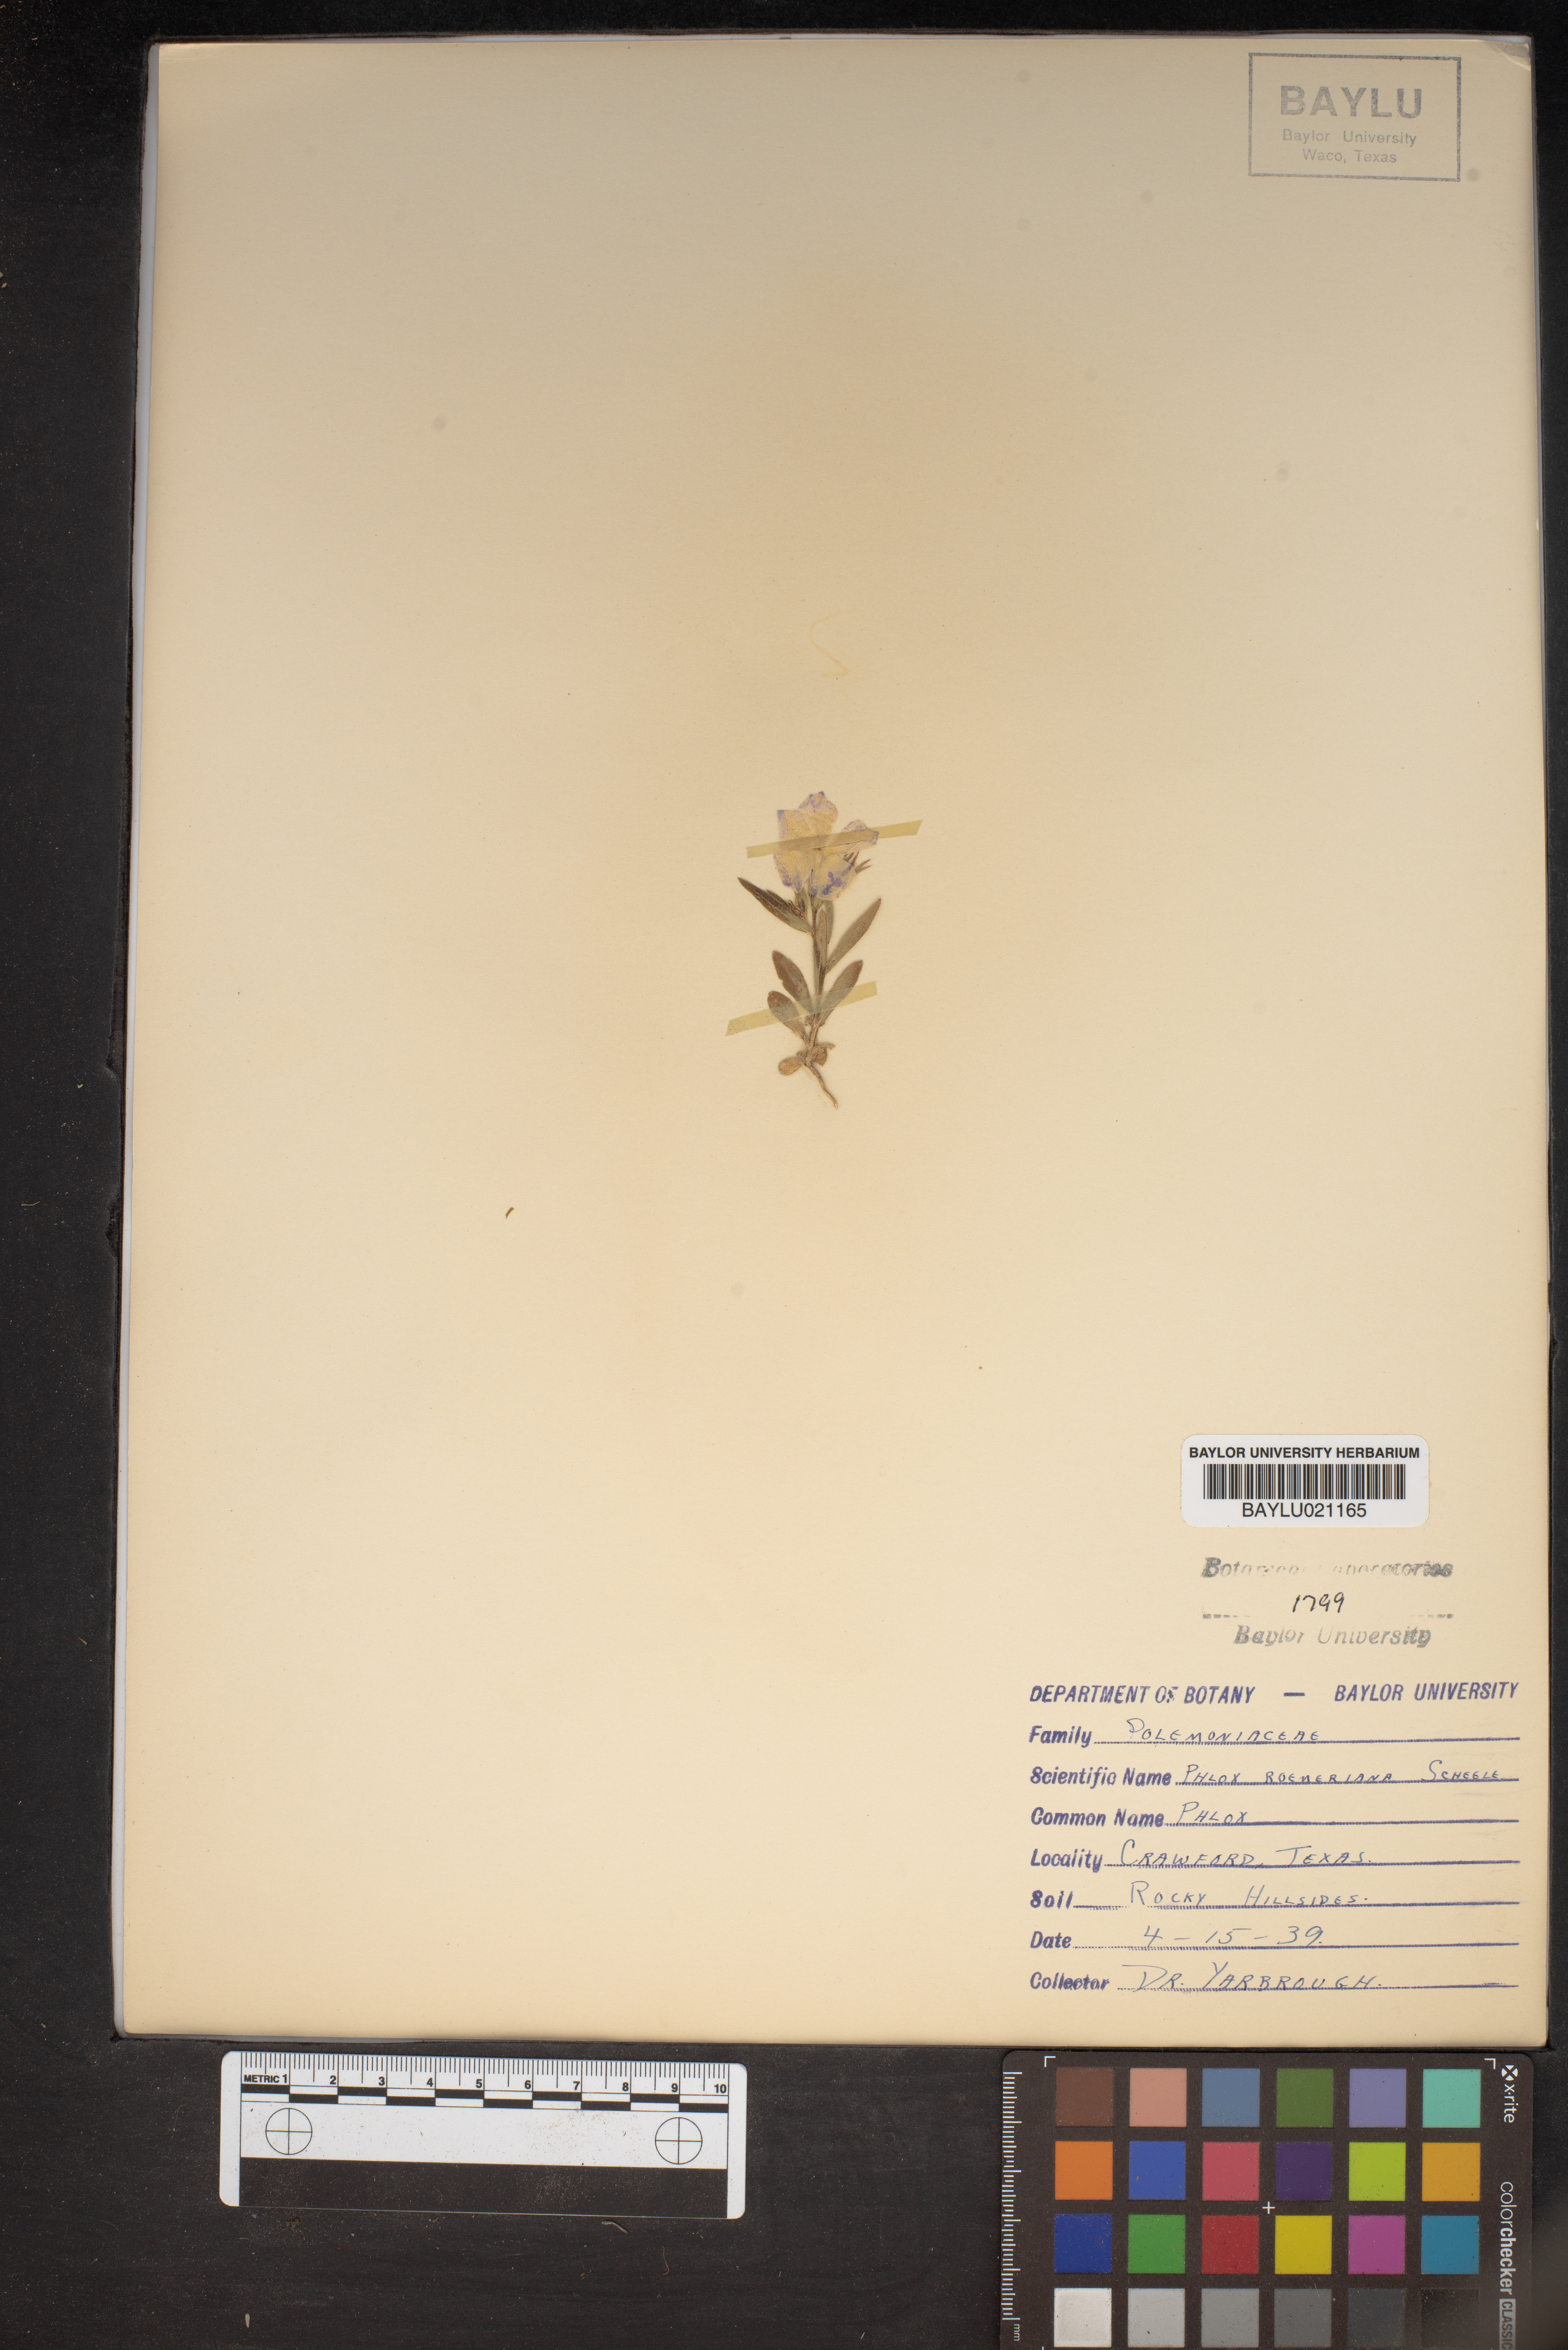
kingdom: Plantae
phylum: Tracheophyta
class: Magnoliopsida
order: Ericales
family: Polemoniaceae
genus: Phlox
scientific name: Phlox roemeriana
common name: Roemer's phlox
